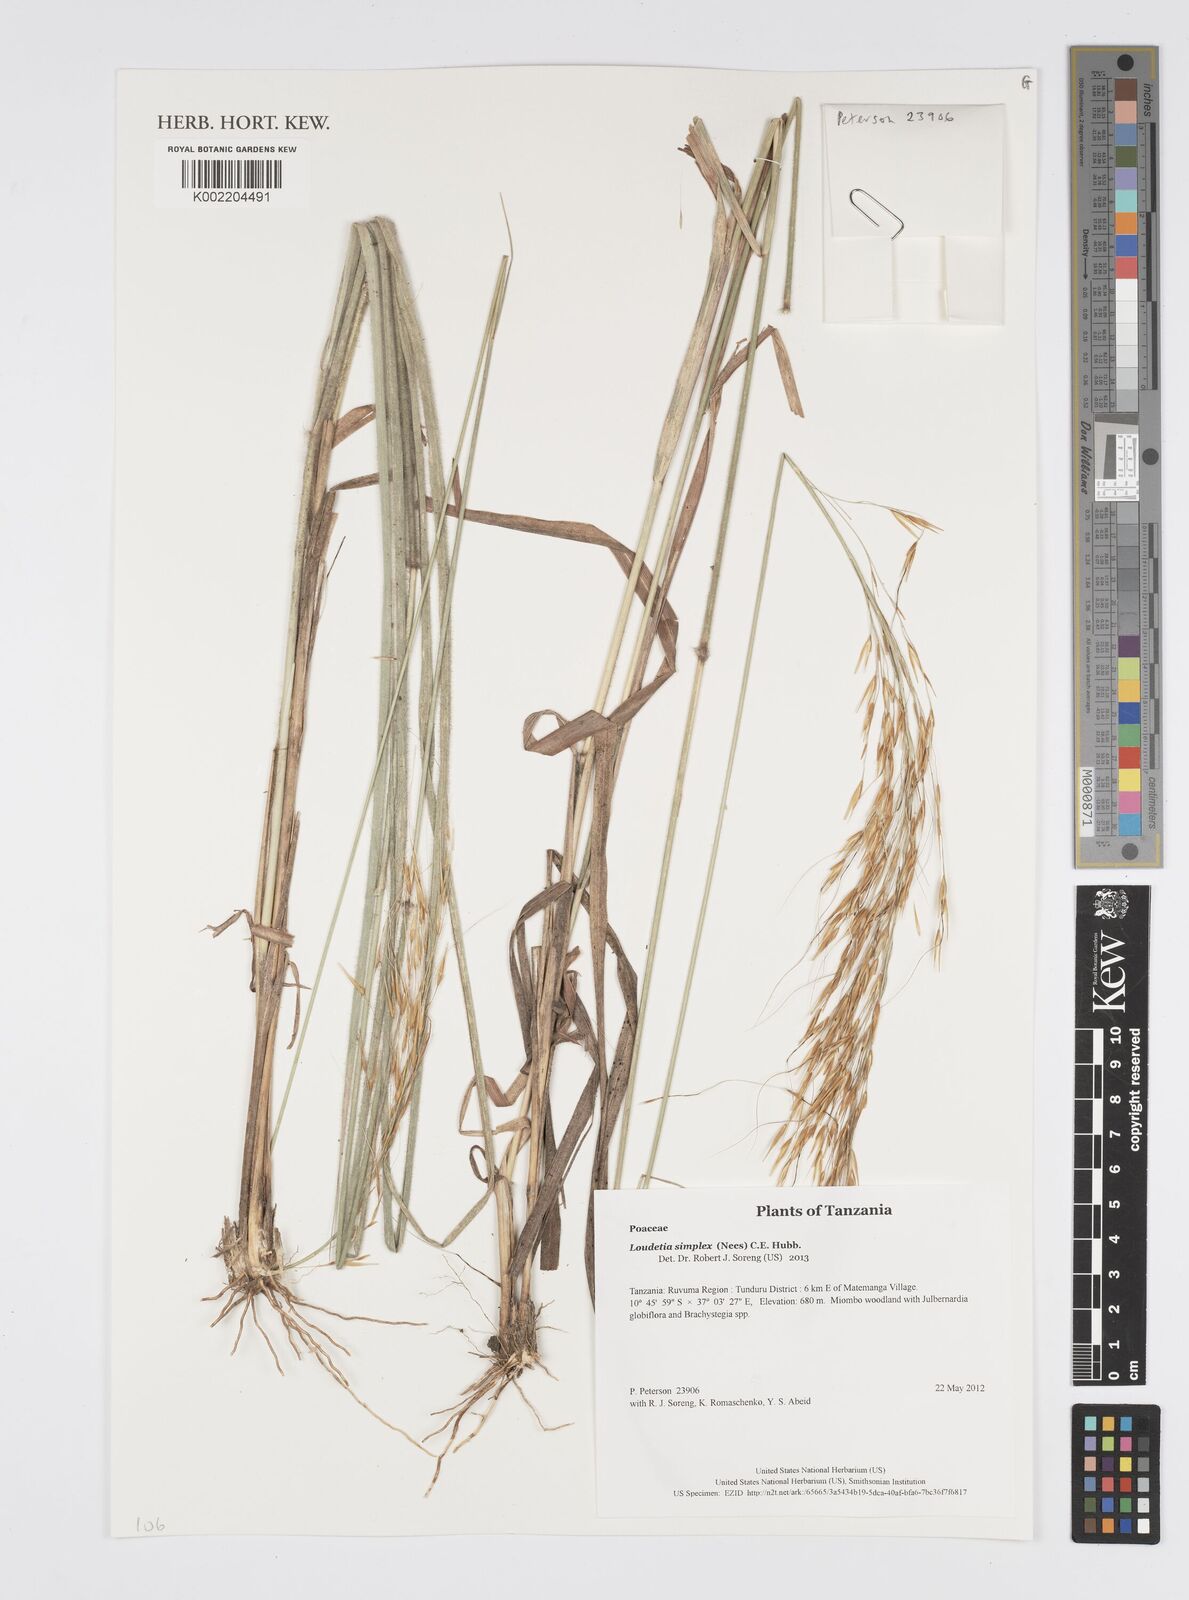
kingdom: Plantae
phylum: Tracheophyta
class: Liliopsida
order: Poales
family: Poaceae
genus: Loudetia
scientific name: Loudetia simplex
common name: Common russet grass
